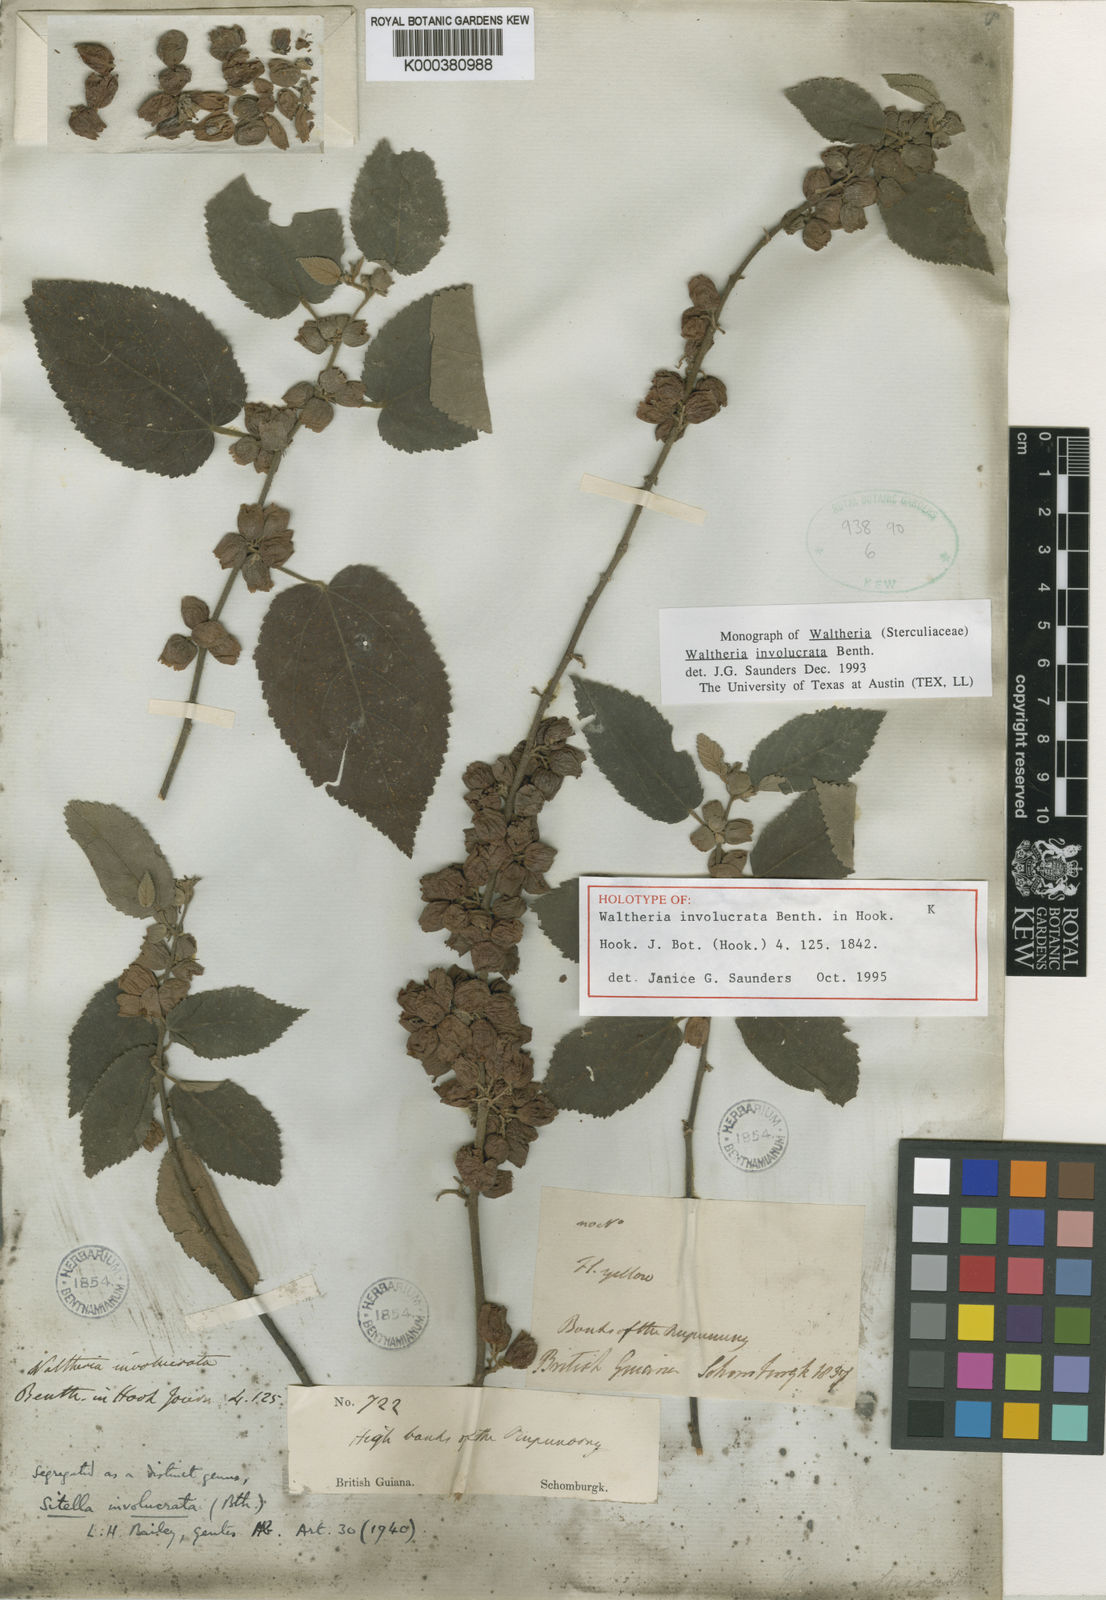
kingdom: Plantae
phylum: Tracheophyta
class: Magnoliopsida
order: Malvales
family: Malvaceae
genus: Waltheria
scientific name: Waltheria involucrata
